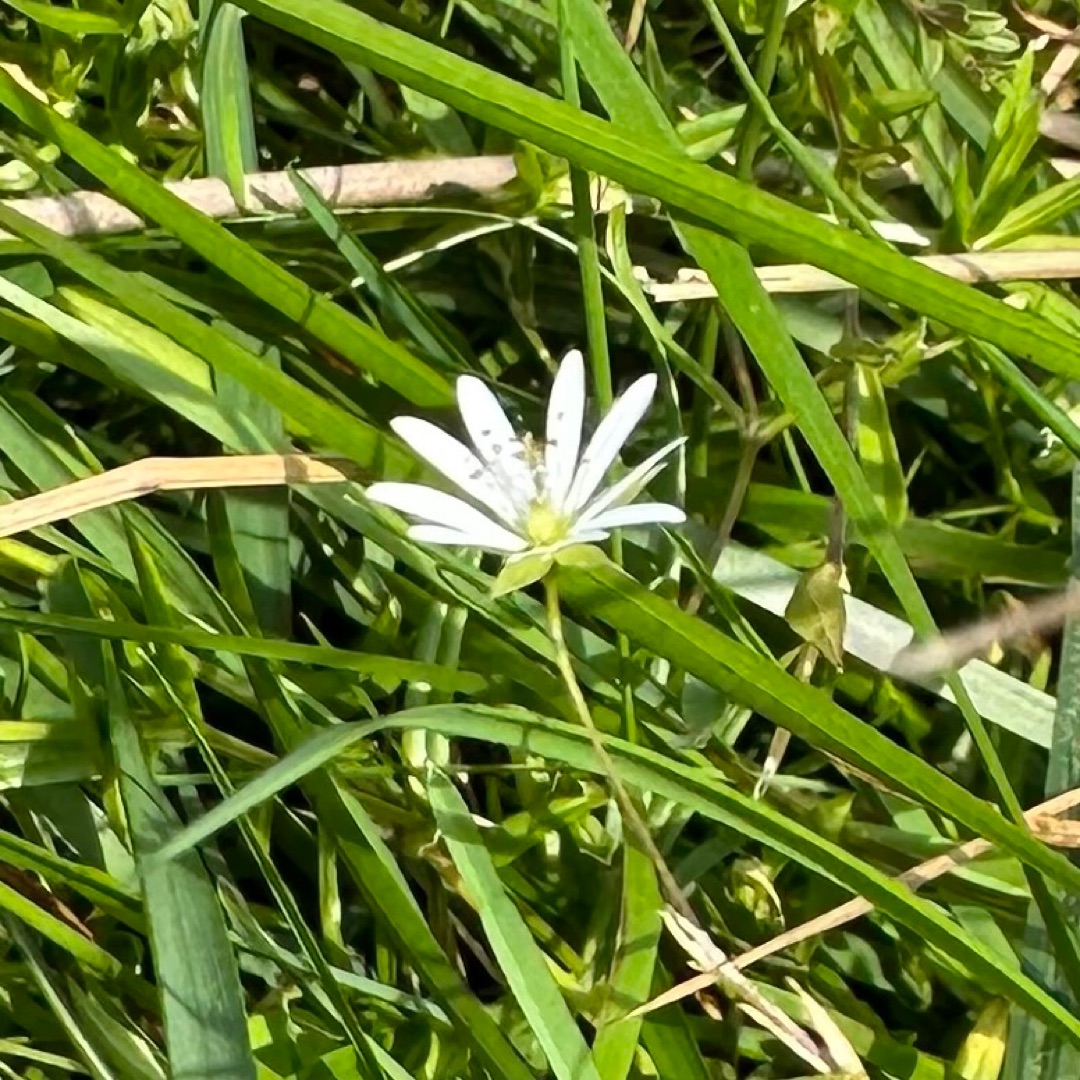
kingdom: Plantae
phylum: Tracheophyta
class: Magnoliopsida
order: Caryophyllales
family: Caryophyllaceae
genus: Stellaria
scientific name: Stellaria
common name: Fladstjerneslægten
